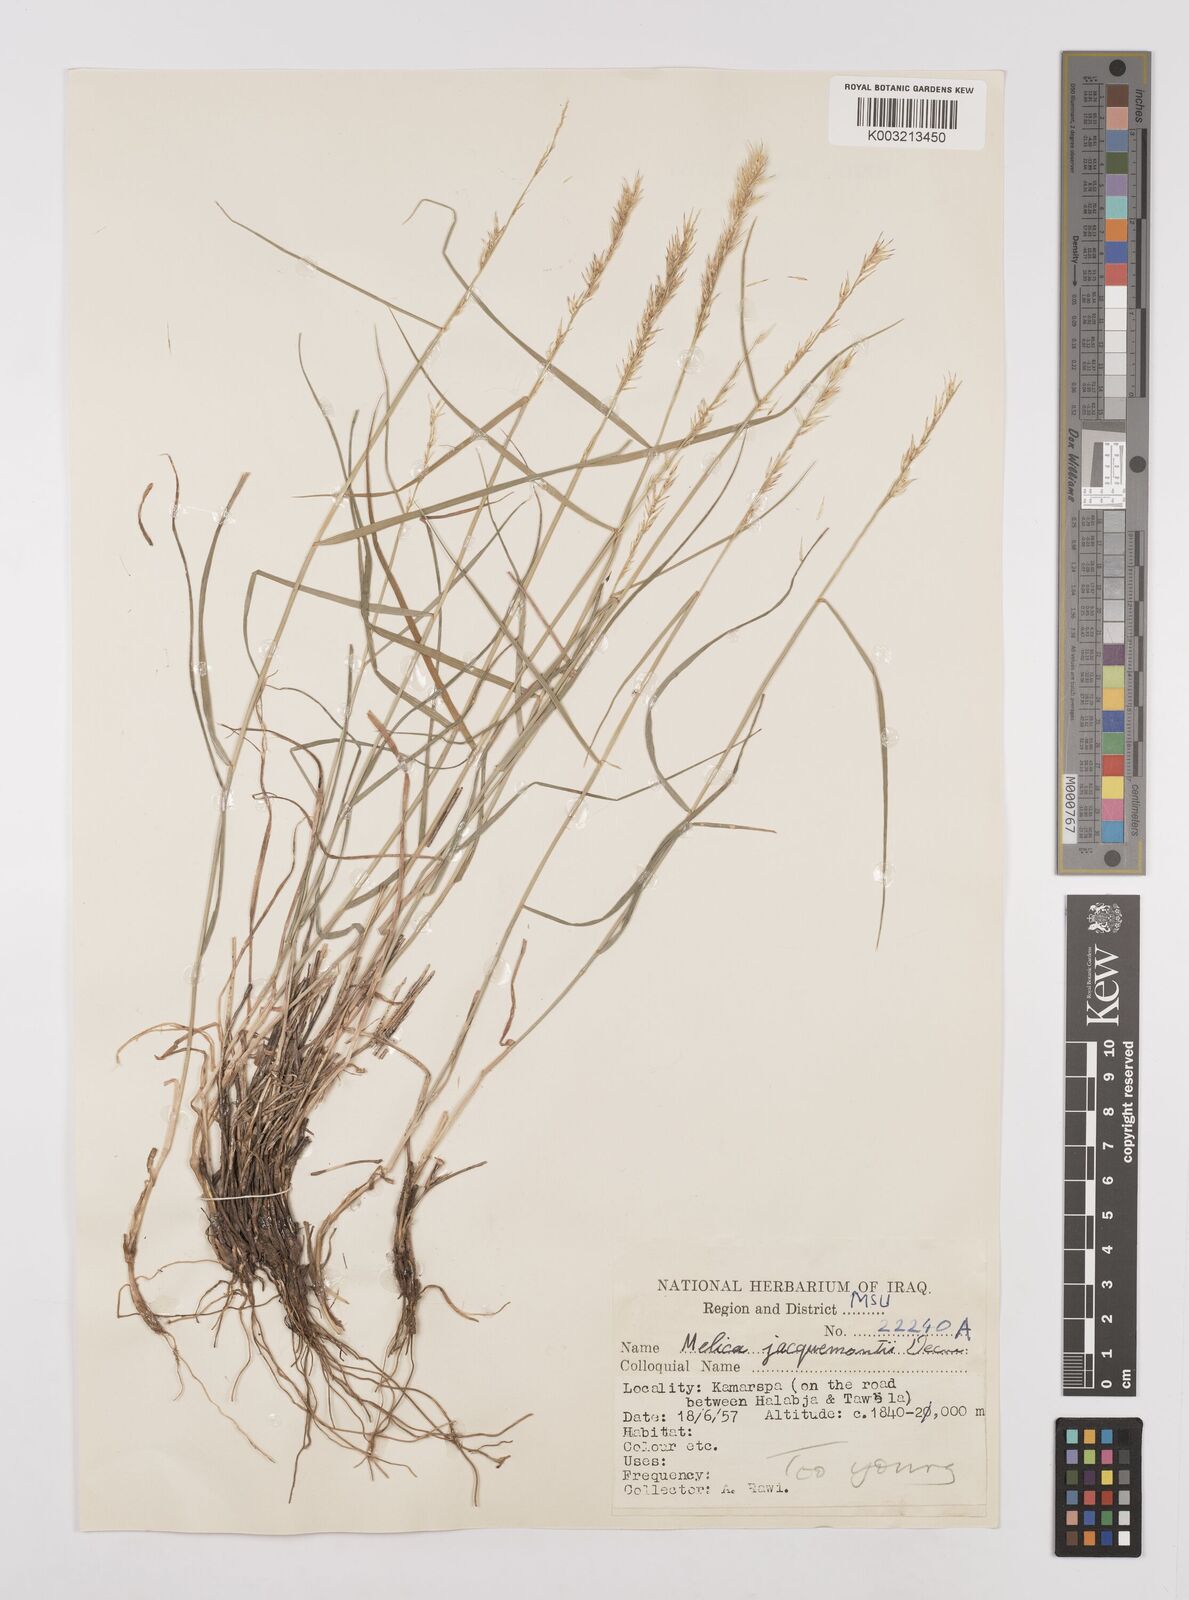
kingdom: Plantae
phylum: Tracheophyta
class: Liliopsida
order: Poales
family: Poaceae
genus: Melica
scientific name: Melica persica
